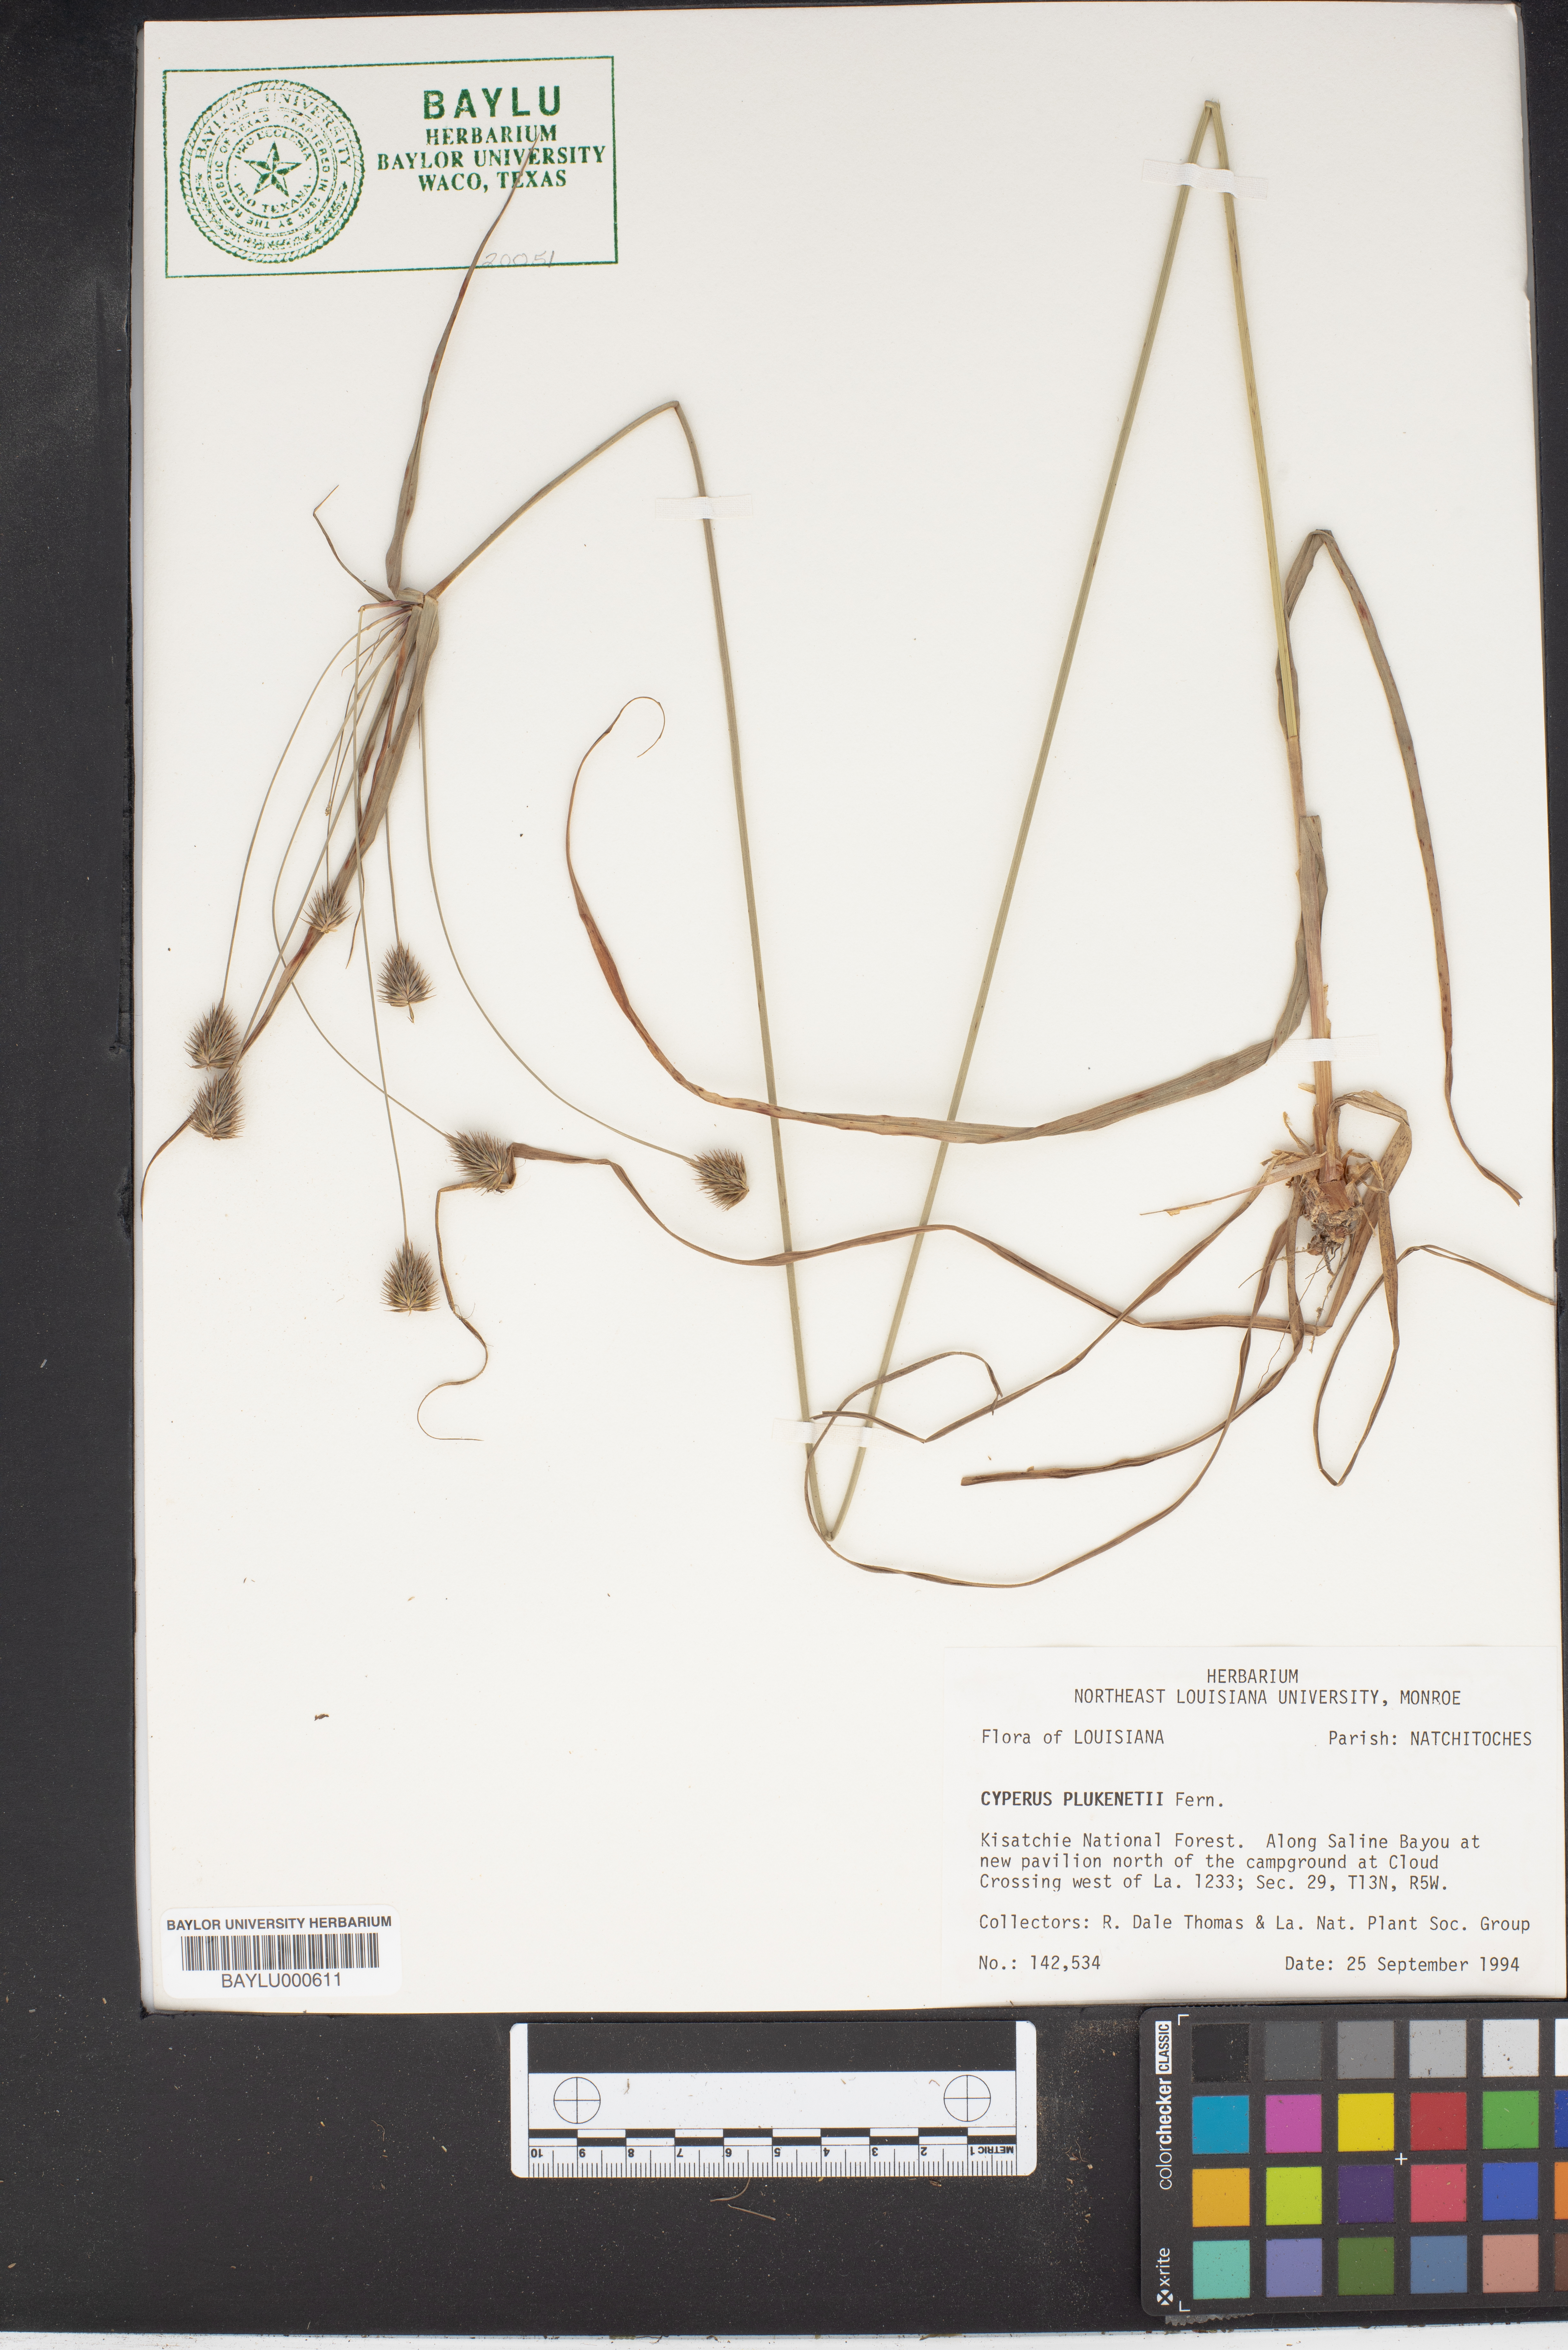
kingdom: Plantae
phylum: Tracheophyta
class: Liliopsida
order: Poales
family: Cyperaceae
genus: Cyperus
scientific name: Cyperus plukenetii
